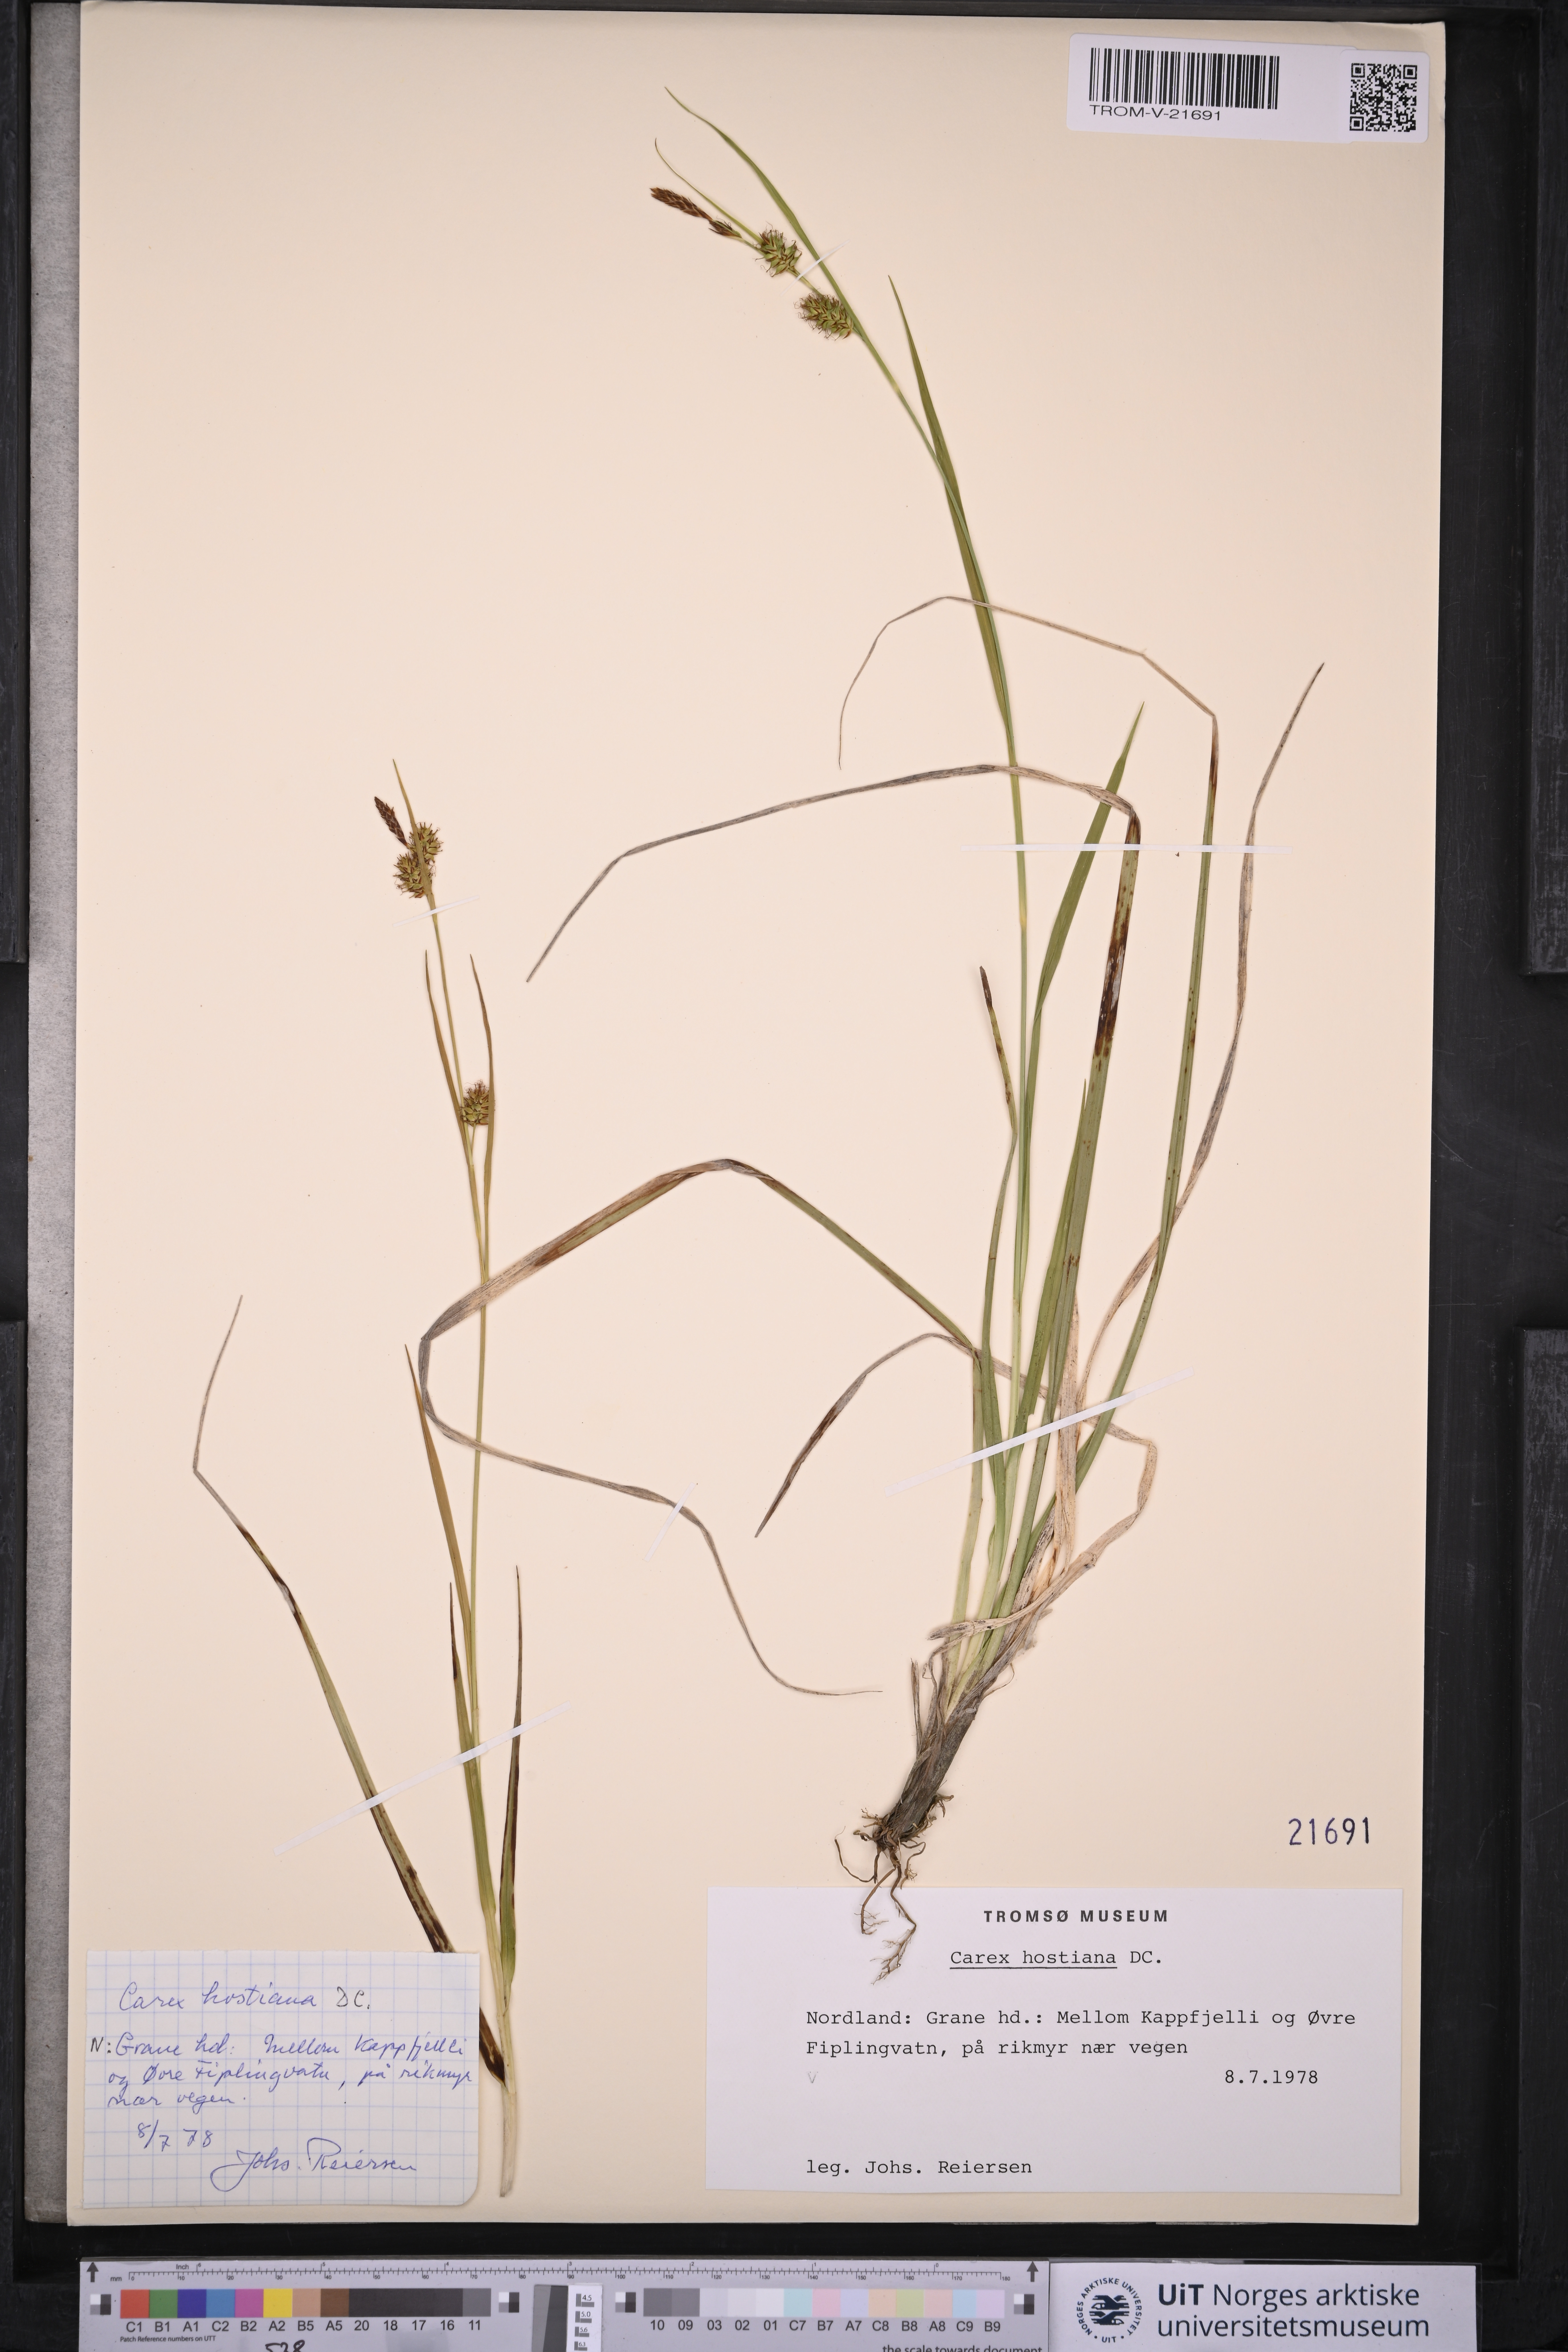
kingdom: Plantae
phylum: Tracheophyta
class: Liliopsida
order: Poales
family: Cyperaceae
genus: Carex
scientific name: Carex hostiana
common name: Tawny sedge
